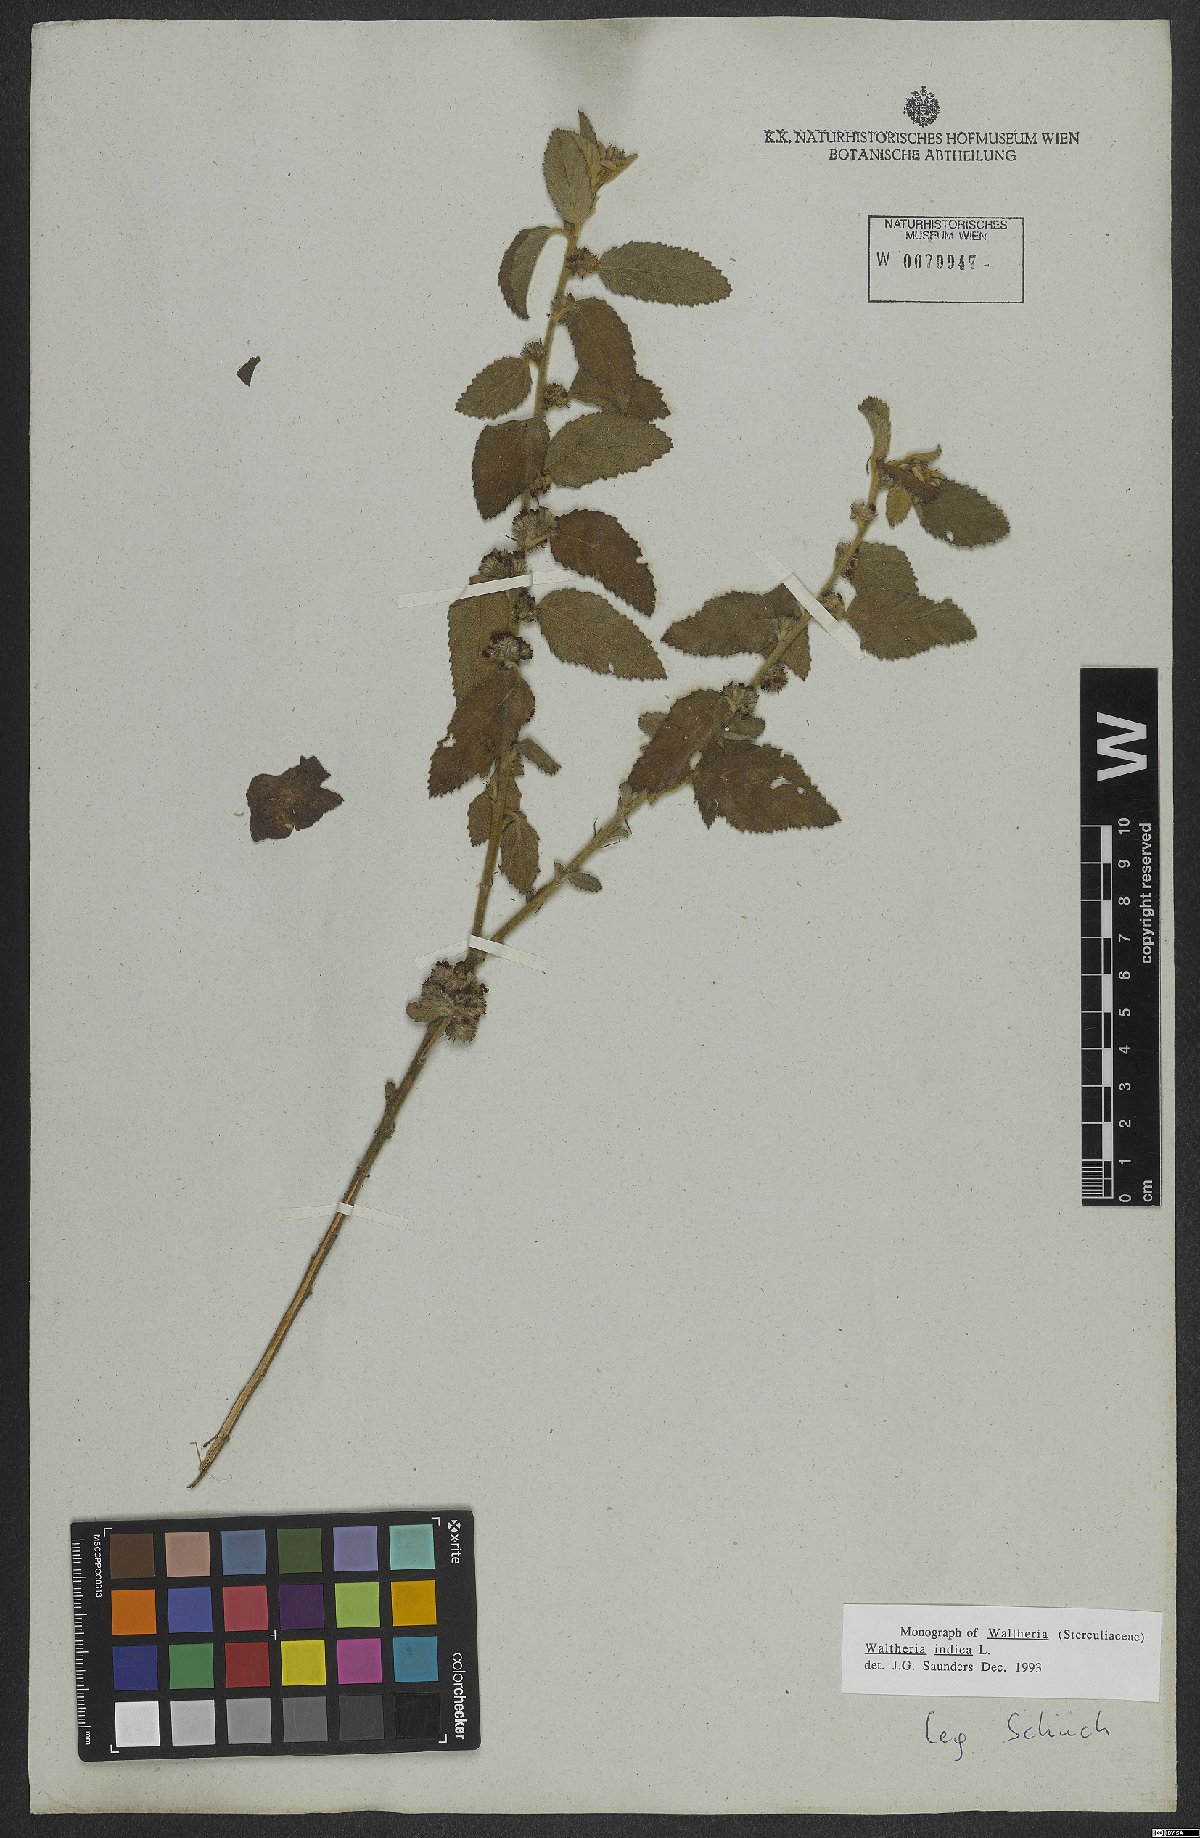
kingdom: Plantae
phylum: Tracheophyta
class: Magnoliopsida
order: Malvales
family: Malvaceae
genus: Waltheria
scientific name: Waltheria indica
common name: Leather-coat
